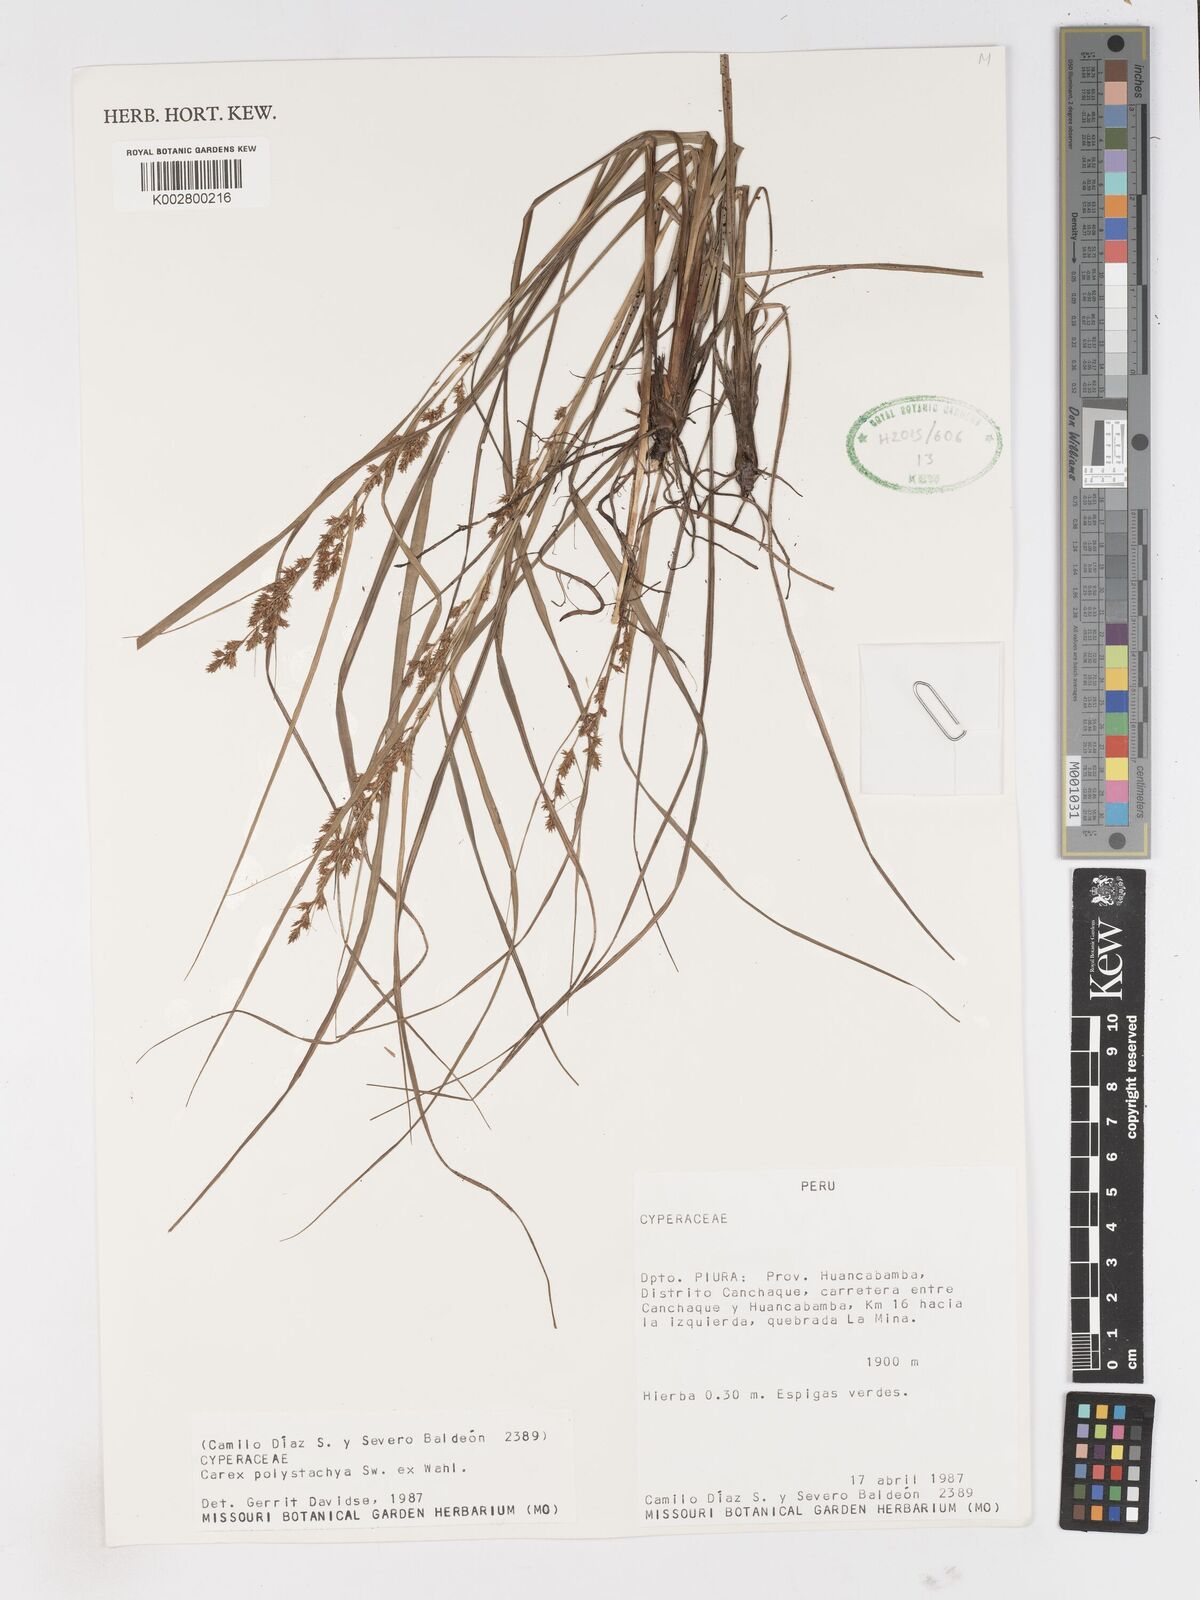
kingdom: Plantae
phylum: Tracheophyta
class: Liliopsida
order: Poales
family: Cyperaceae
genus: Carex
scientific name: Carex polysticha
